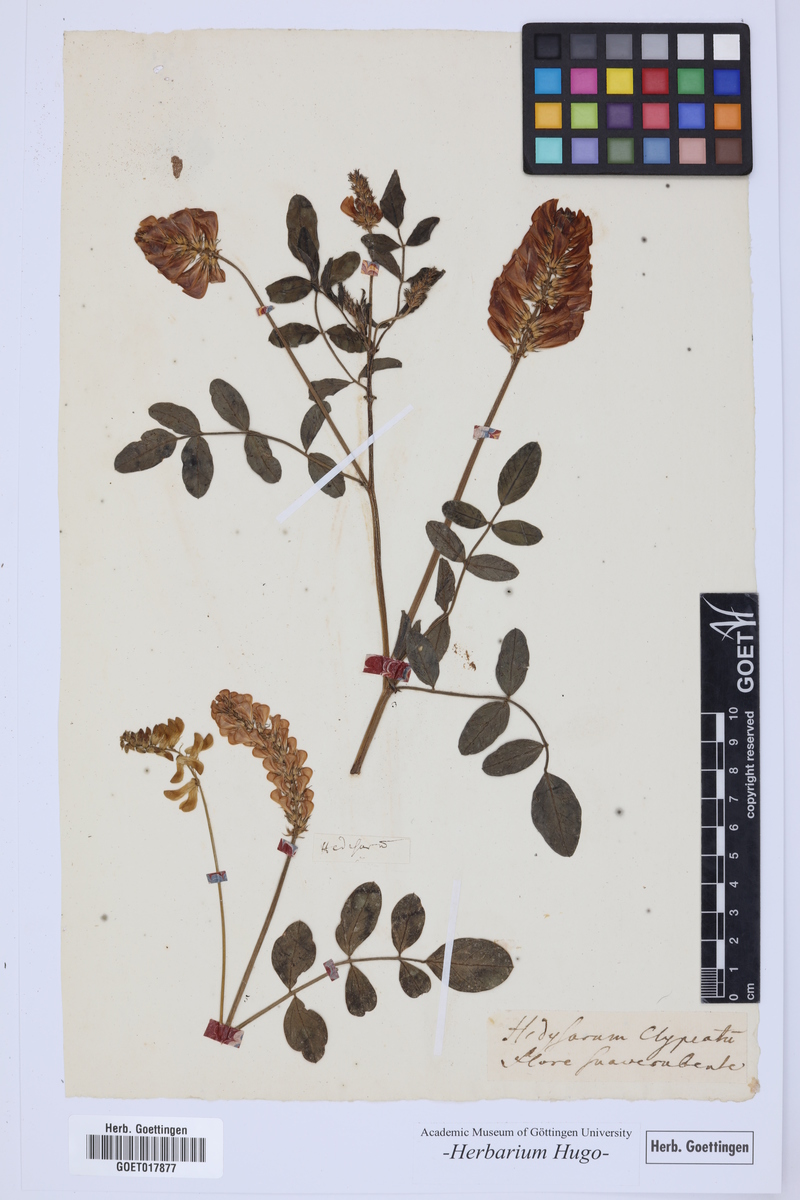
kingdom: Plantae
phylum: Tracheophyta
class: Magnoliopsida
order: Fabales
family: Fabaceae
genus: Sulla
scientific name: Sulla coronaria
